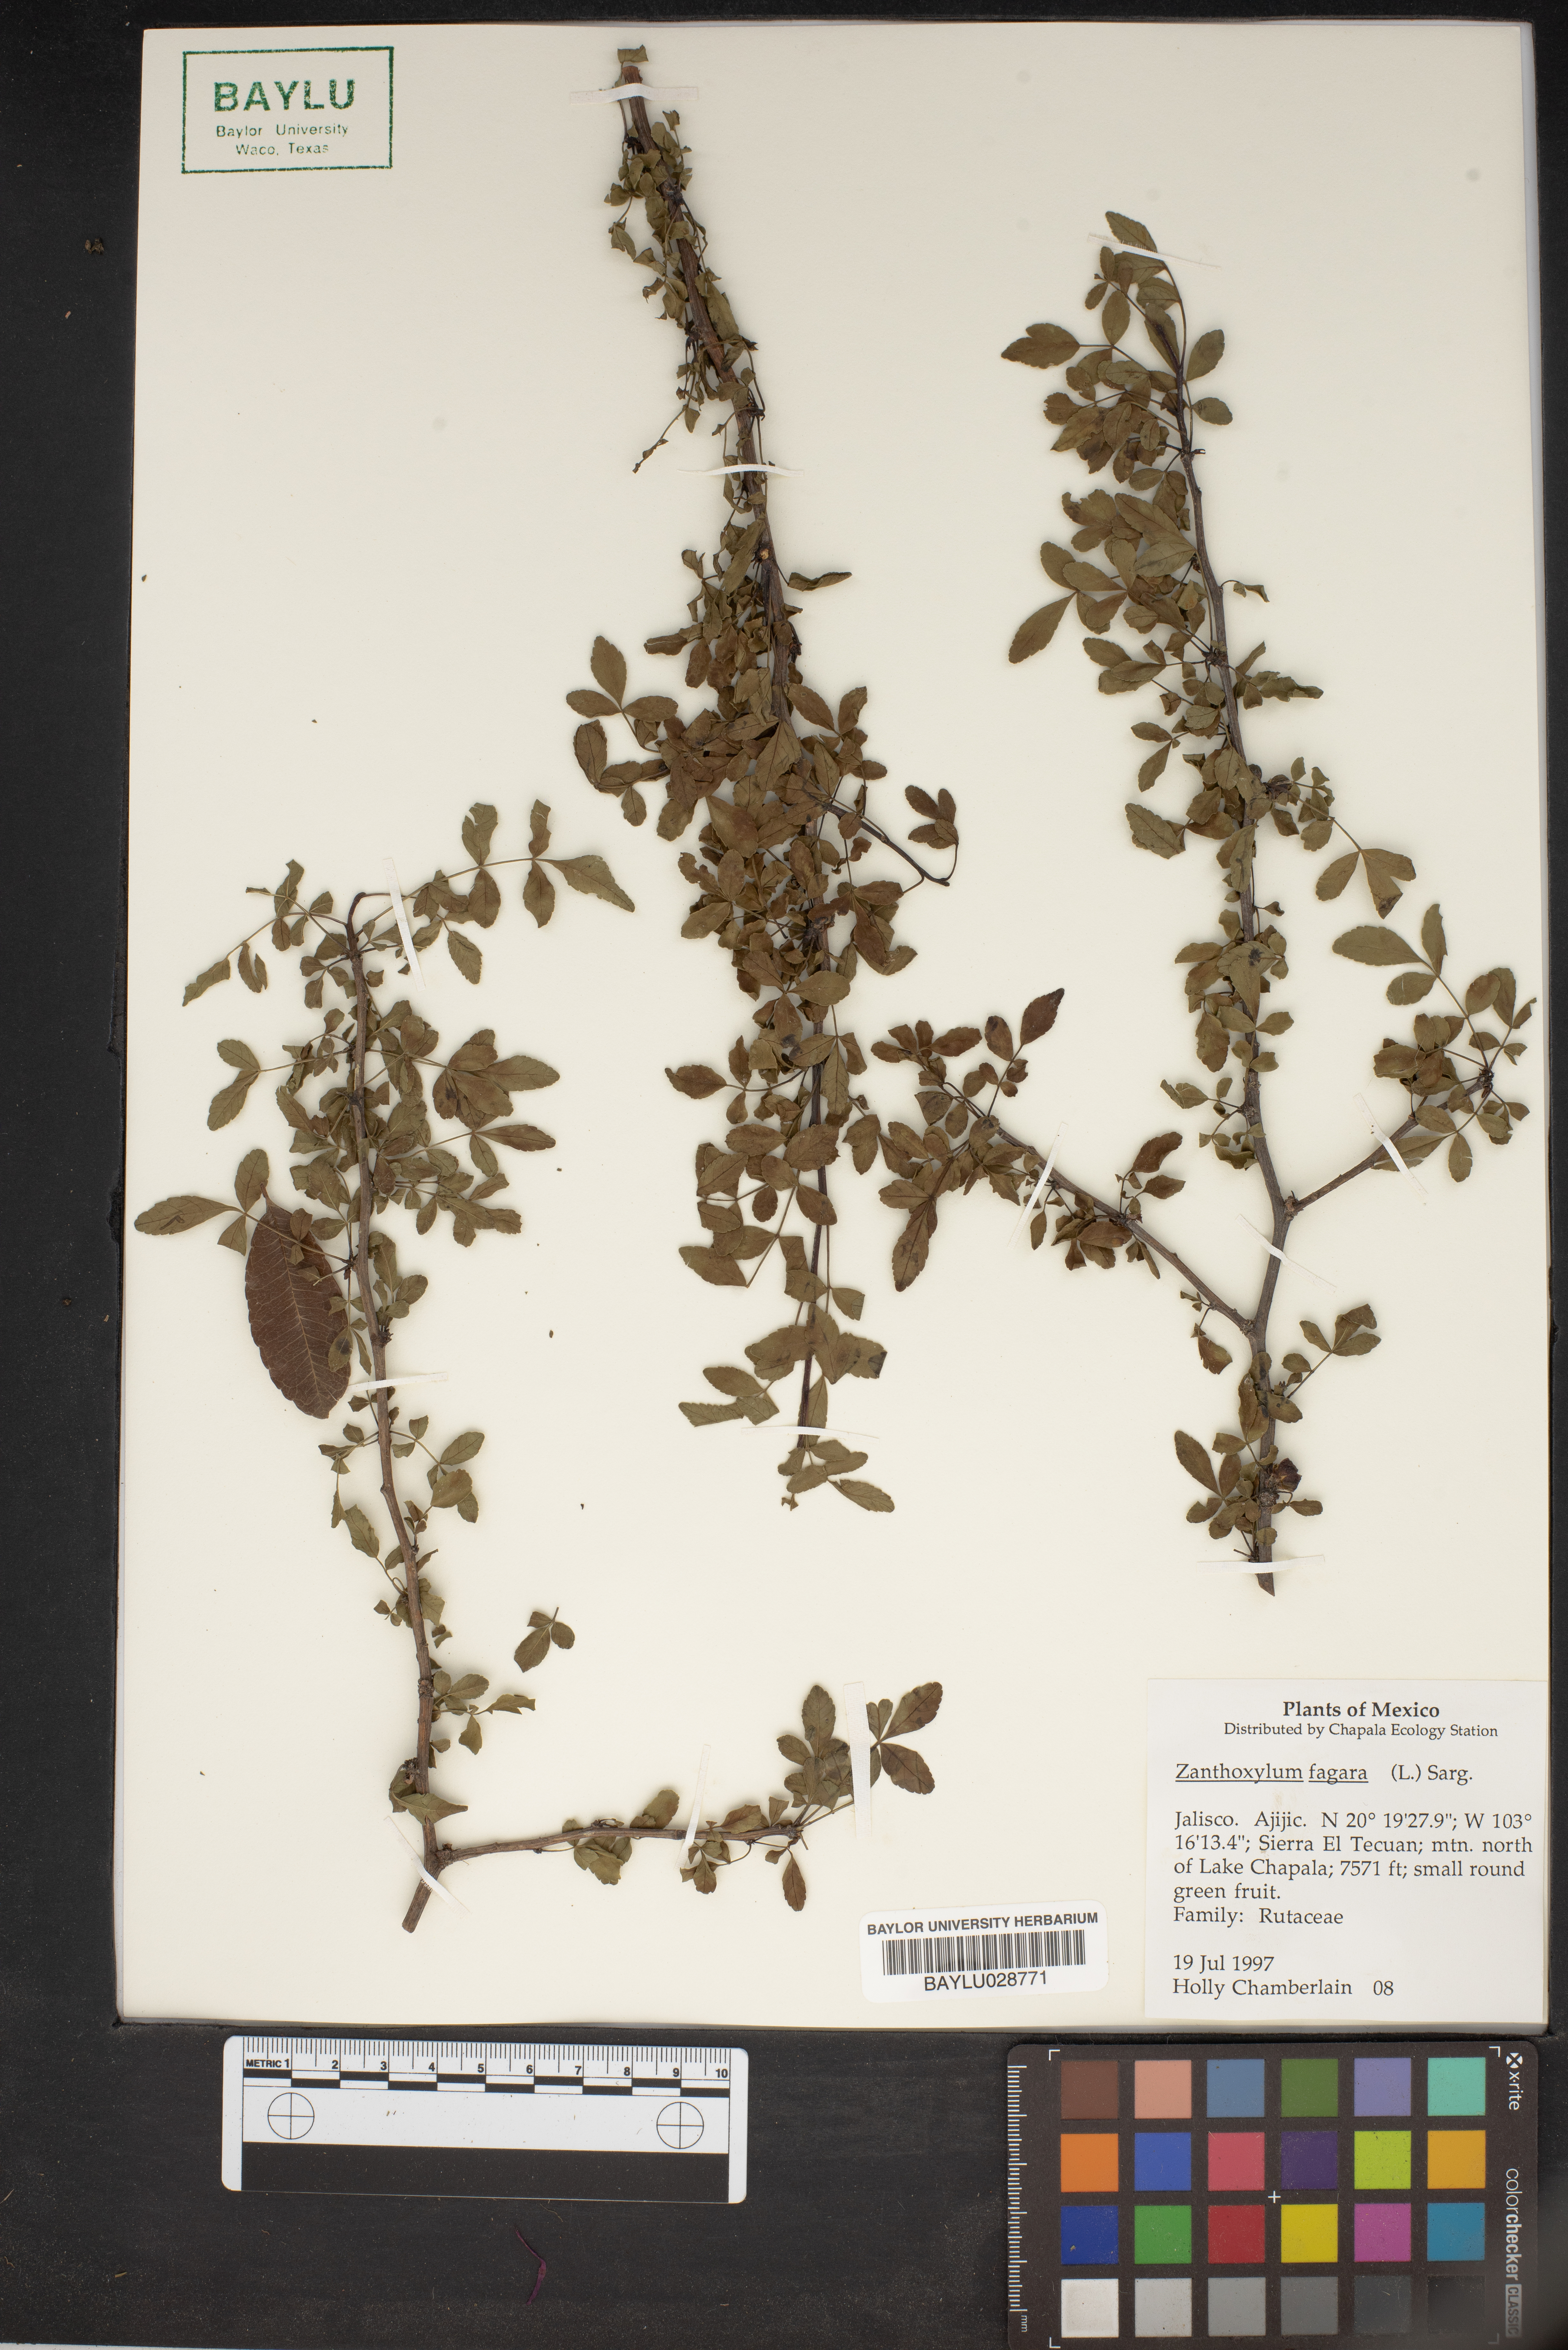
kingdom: Plantae
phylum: Tracheophyta
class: Magnoliopsida
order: Sapindales
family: Rutaceae
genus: Zanthoxylum
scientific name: Zanthoxylum fagara
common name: Lime prickly-ash
